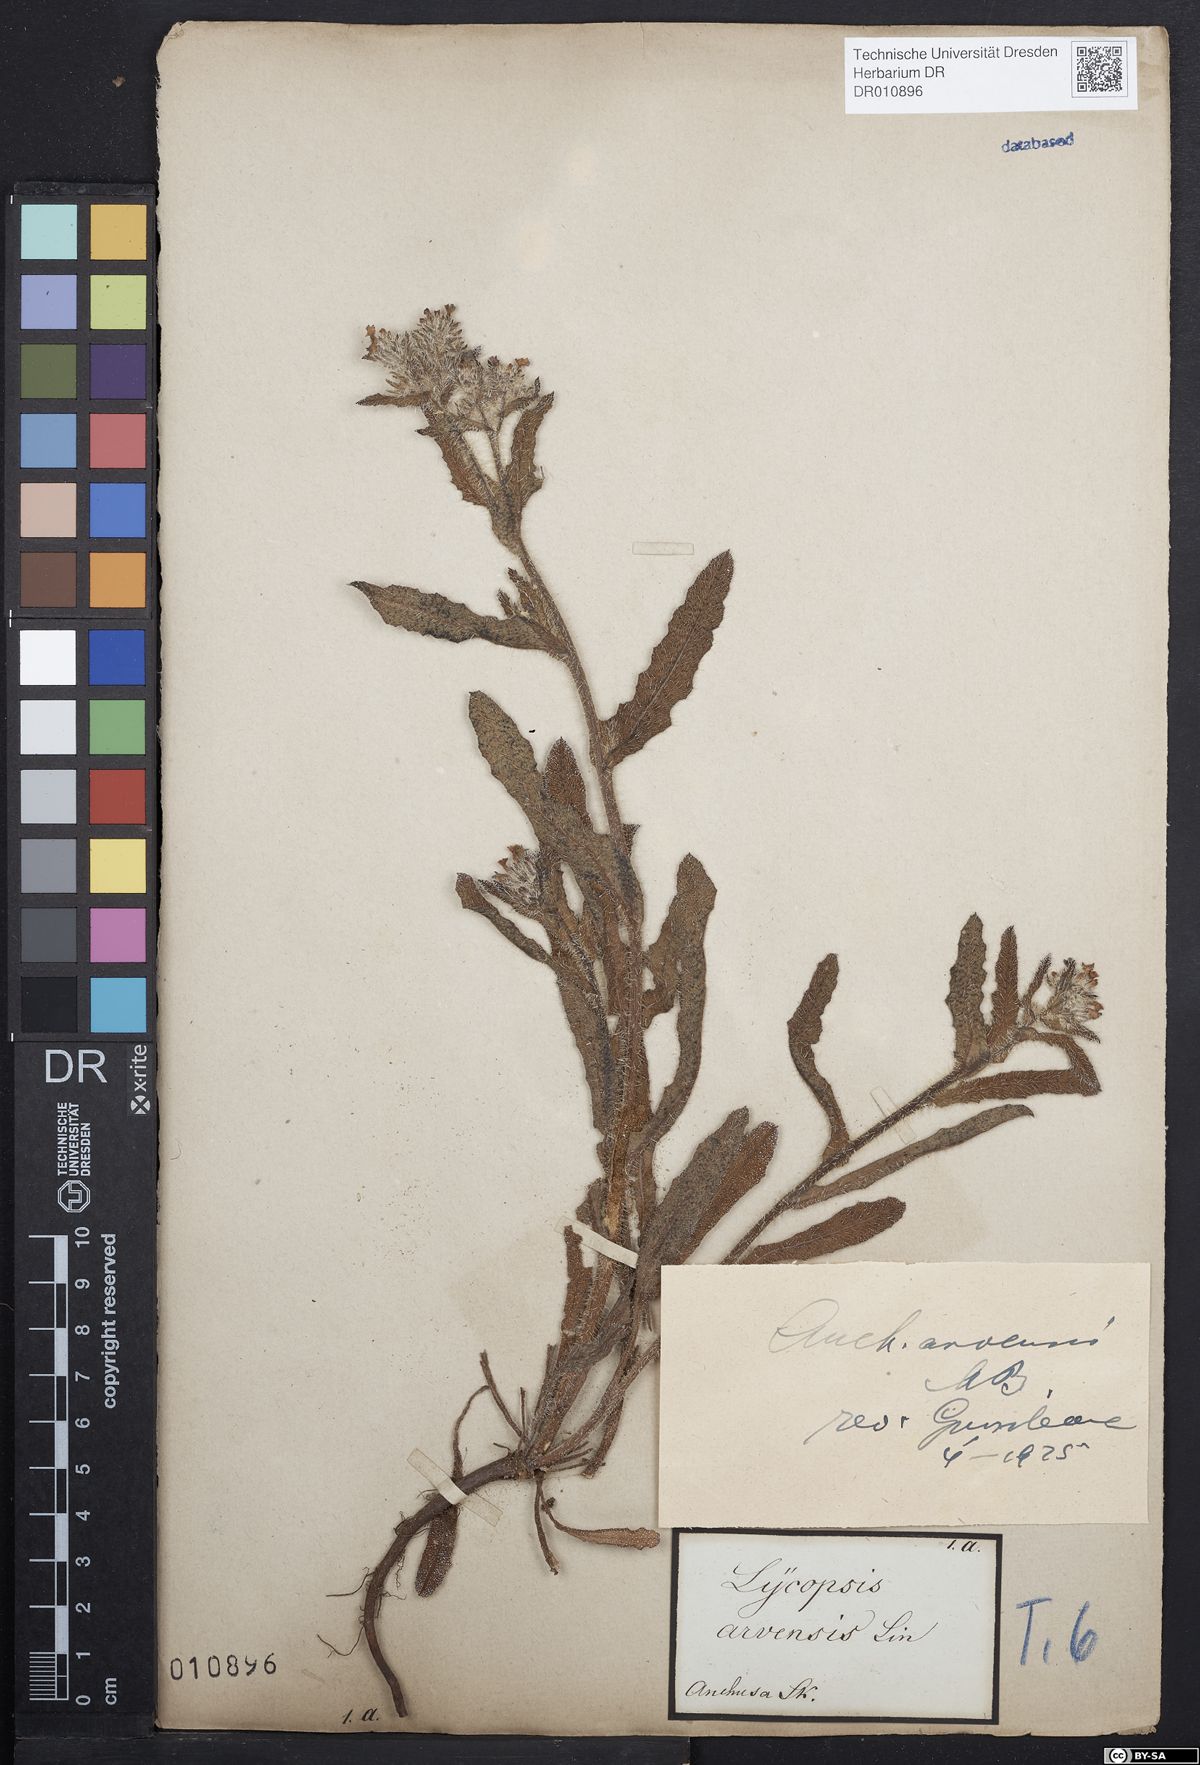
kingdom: Plantae
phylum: Tracheophyta
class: Magnoliopsida
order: Boraginales
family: Boraginaceae
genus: Lycopsis
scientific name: Lycopsis arvensis
